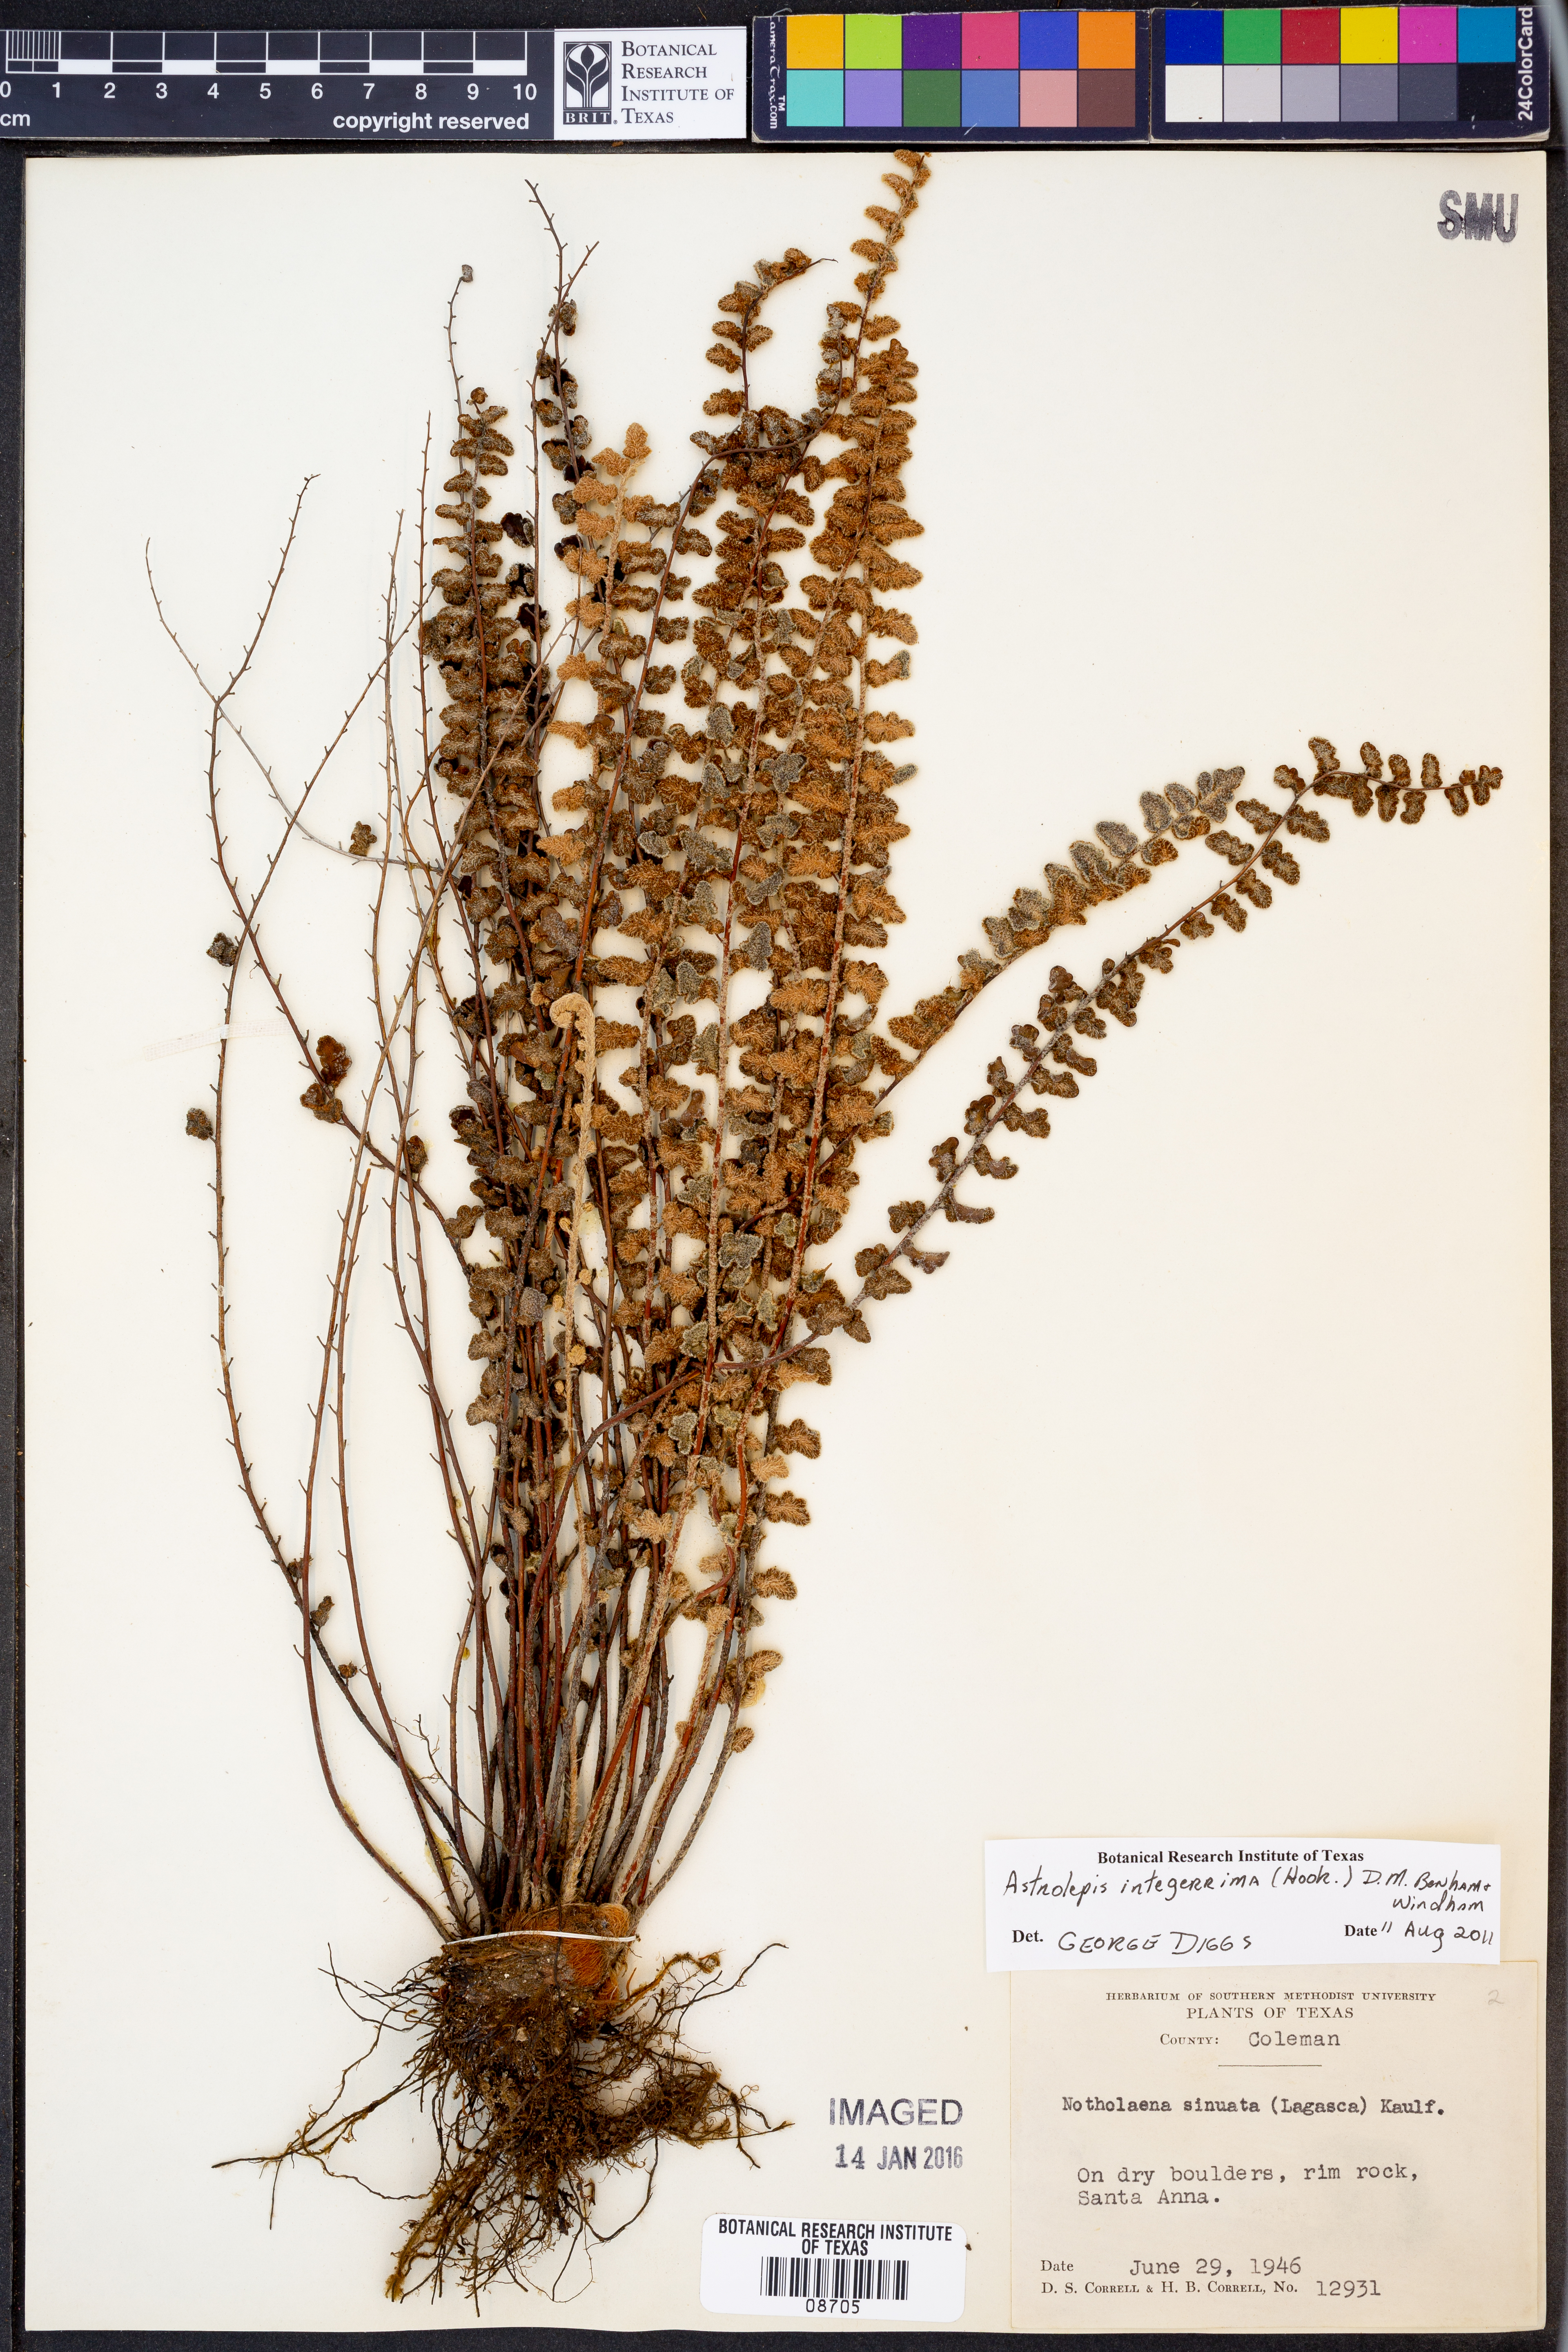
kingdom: Plantae
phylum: Tracheophyta
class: Polypodiopsida
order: Polypodiales
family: Pteridaceae
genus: Astrolepis
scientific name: Astrolepis integerrima
